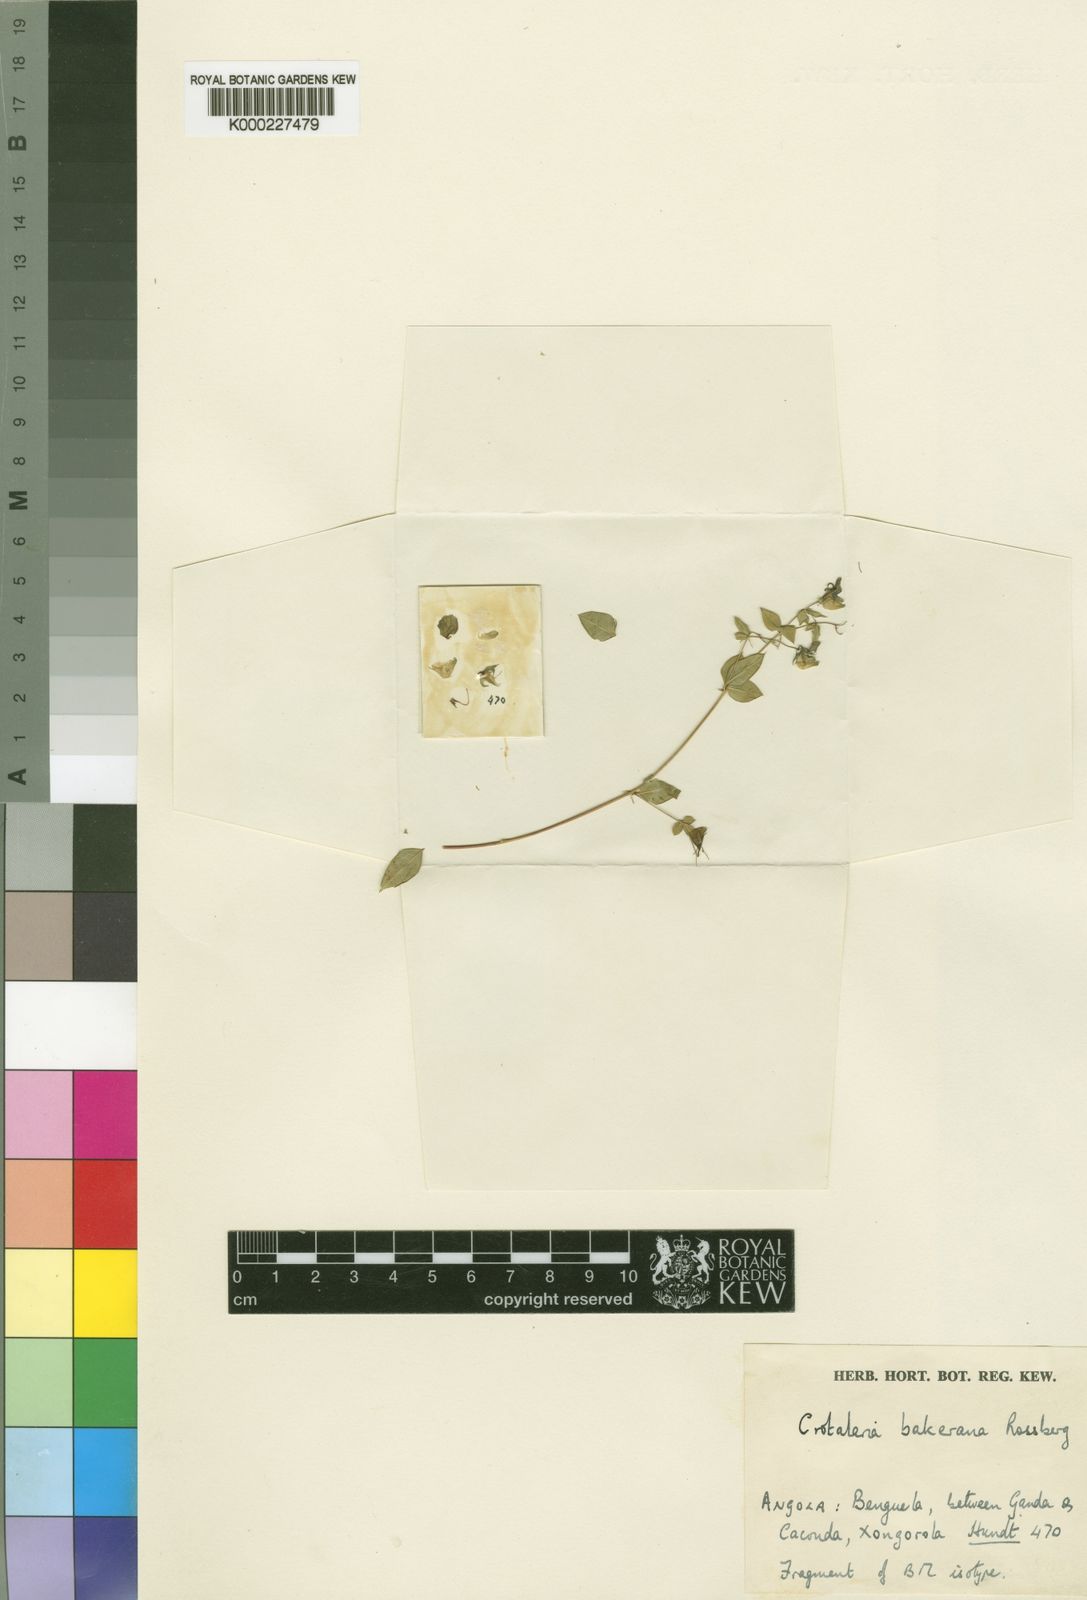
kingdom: Plantae
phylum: Tracheophyta
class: Magnoliopsida
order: Fabales
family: Fabaceae
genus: Crotalaria
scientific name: Crotalaria bakeriana
